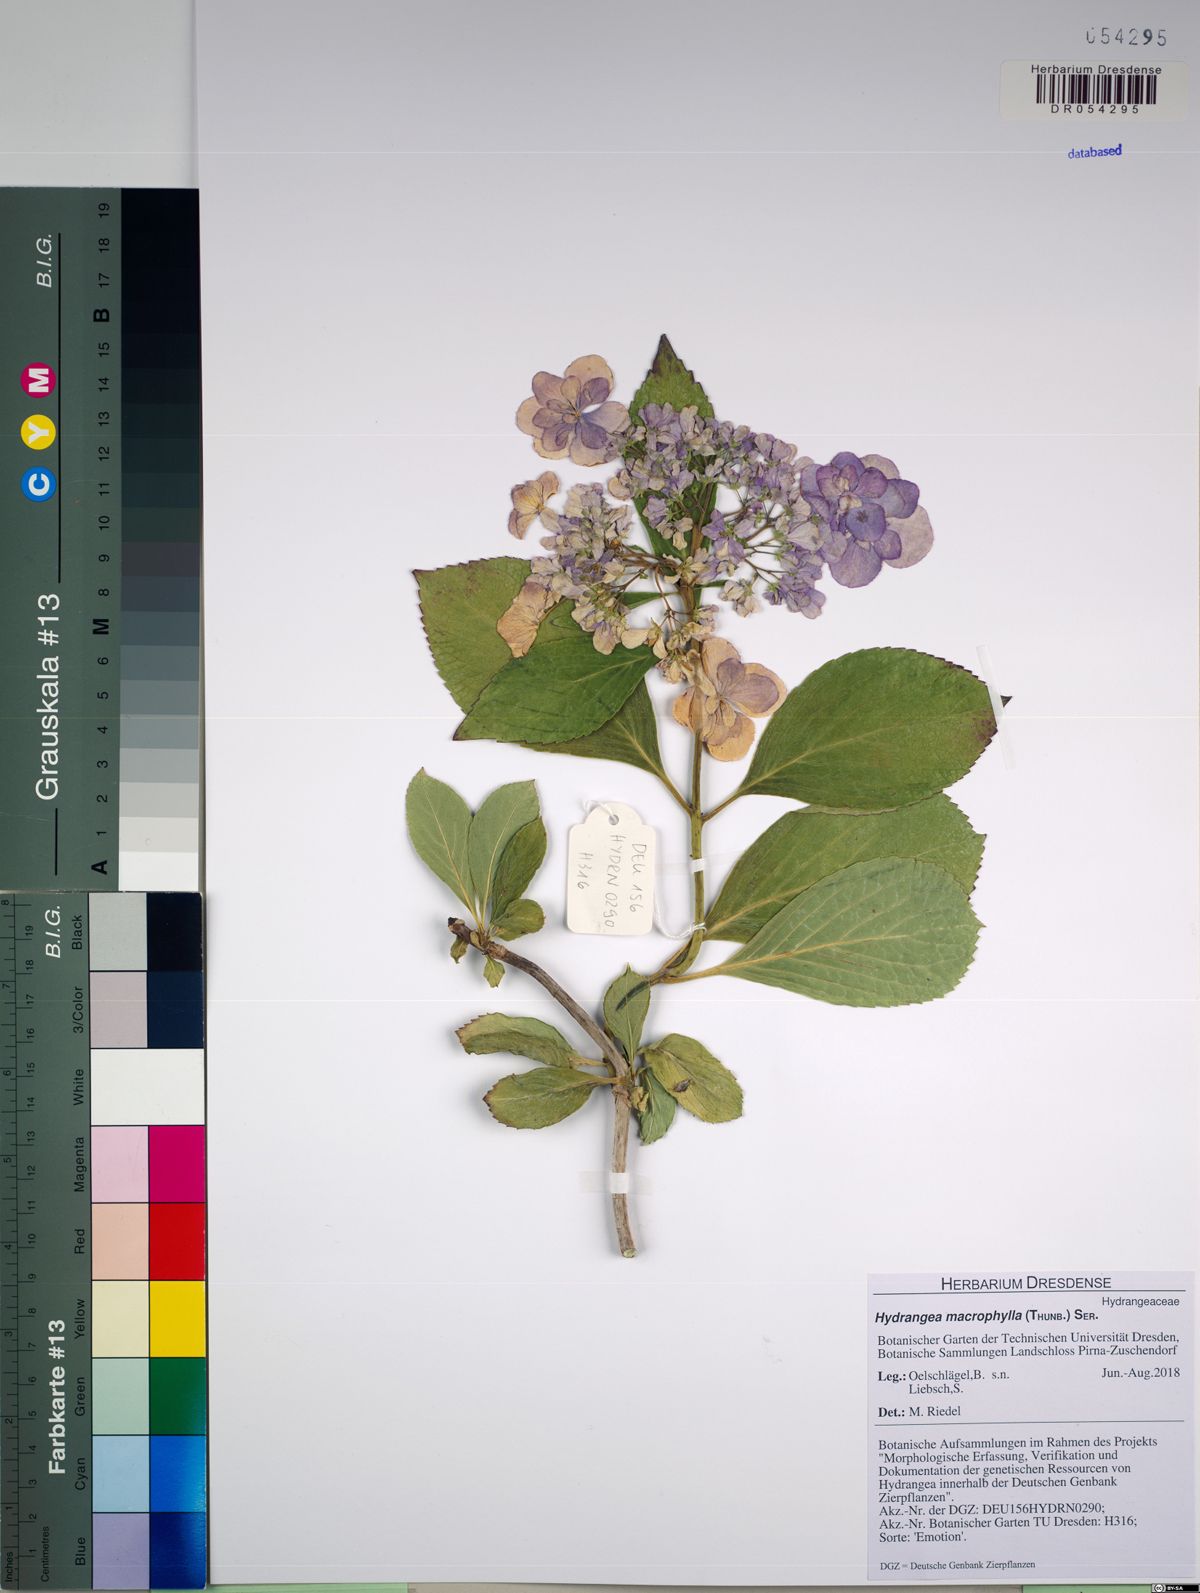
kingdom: Plantae
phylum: Tracheophyta
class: Magnoliopsida
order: Cornales
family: Hydrangeaceae
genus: Hydrangea
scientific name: Hydrangea macrophylla
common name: Hydrangea
